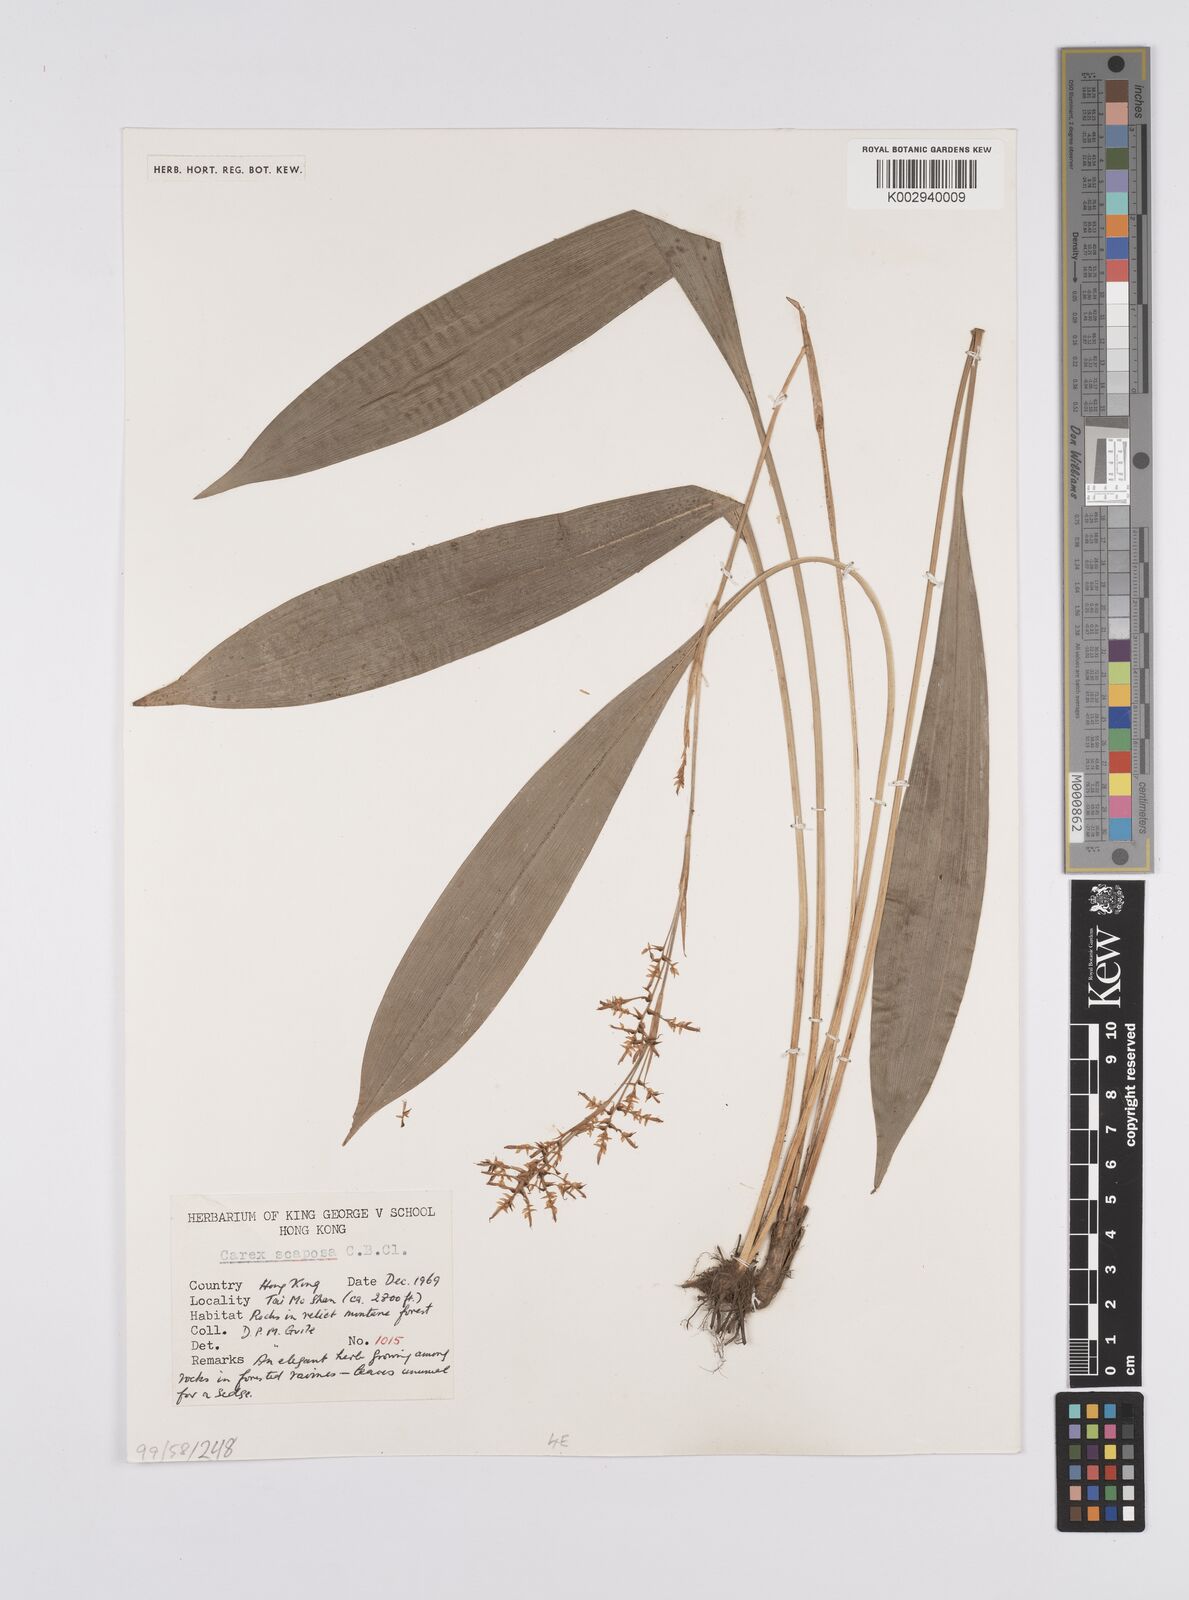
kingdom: Plantae
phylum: Tracheophyta
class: Liliopsida
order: Poales
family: Cyperaceae
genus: Carex
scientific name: Carex scaposa
